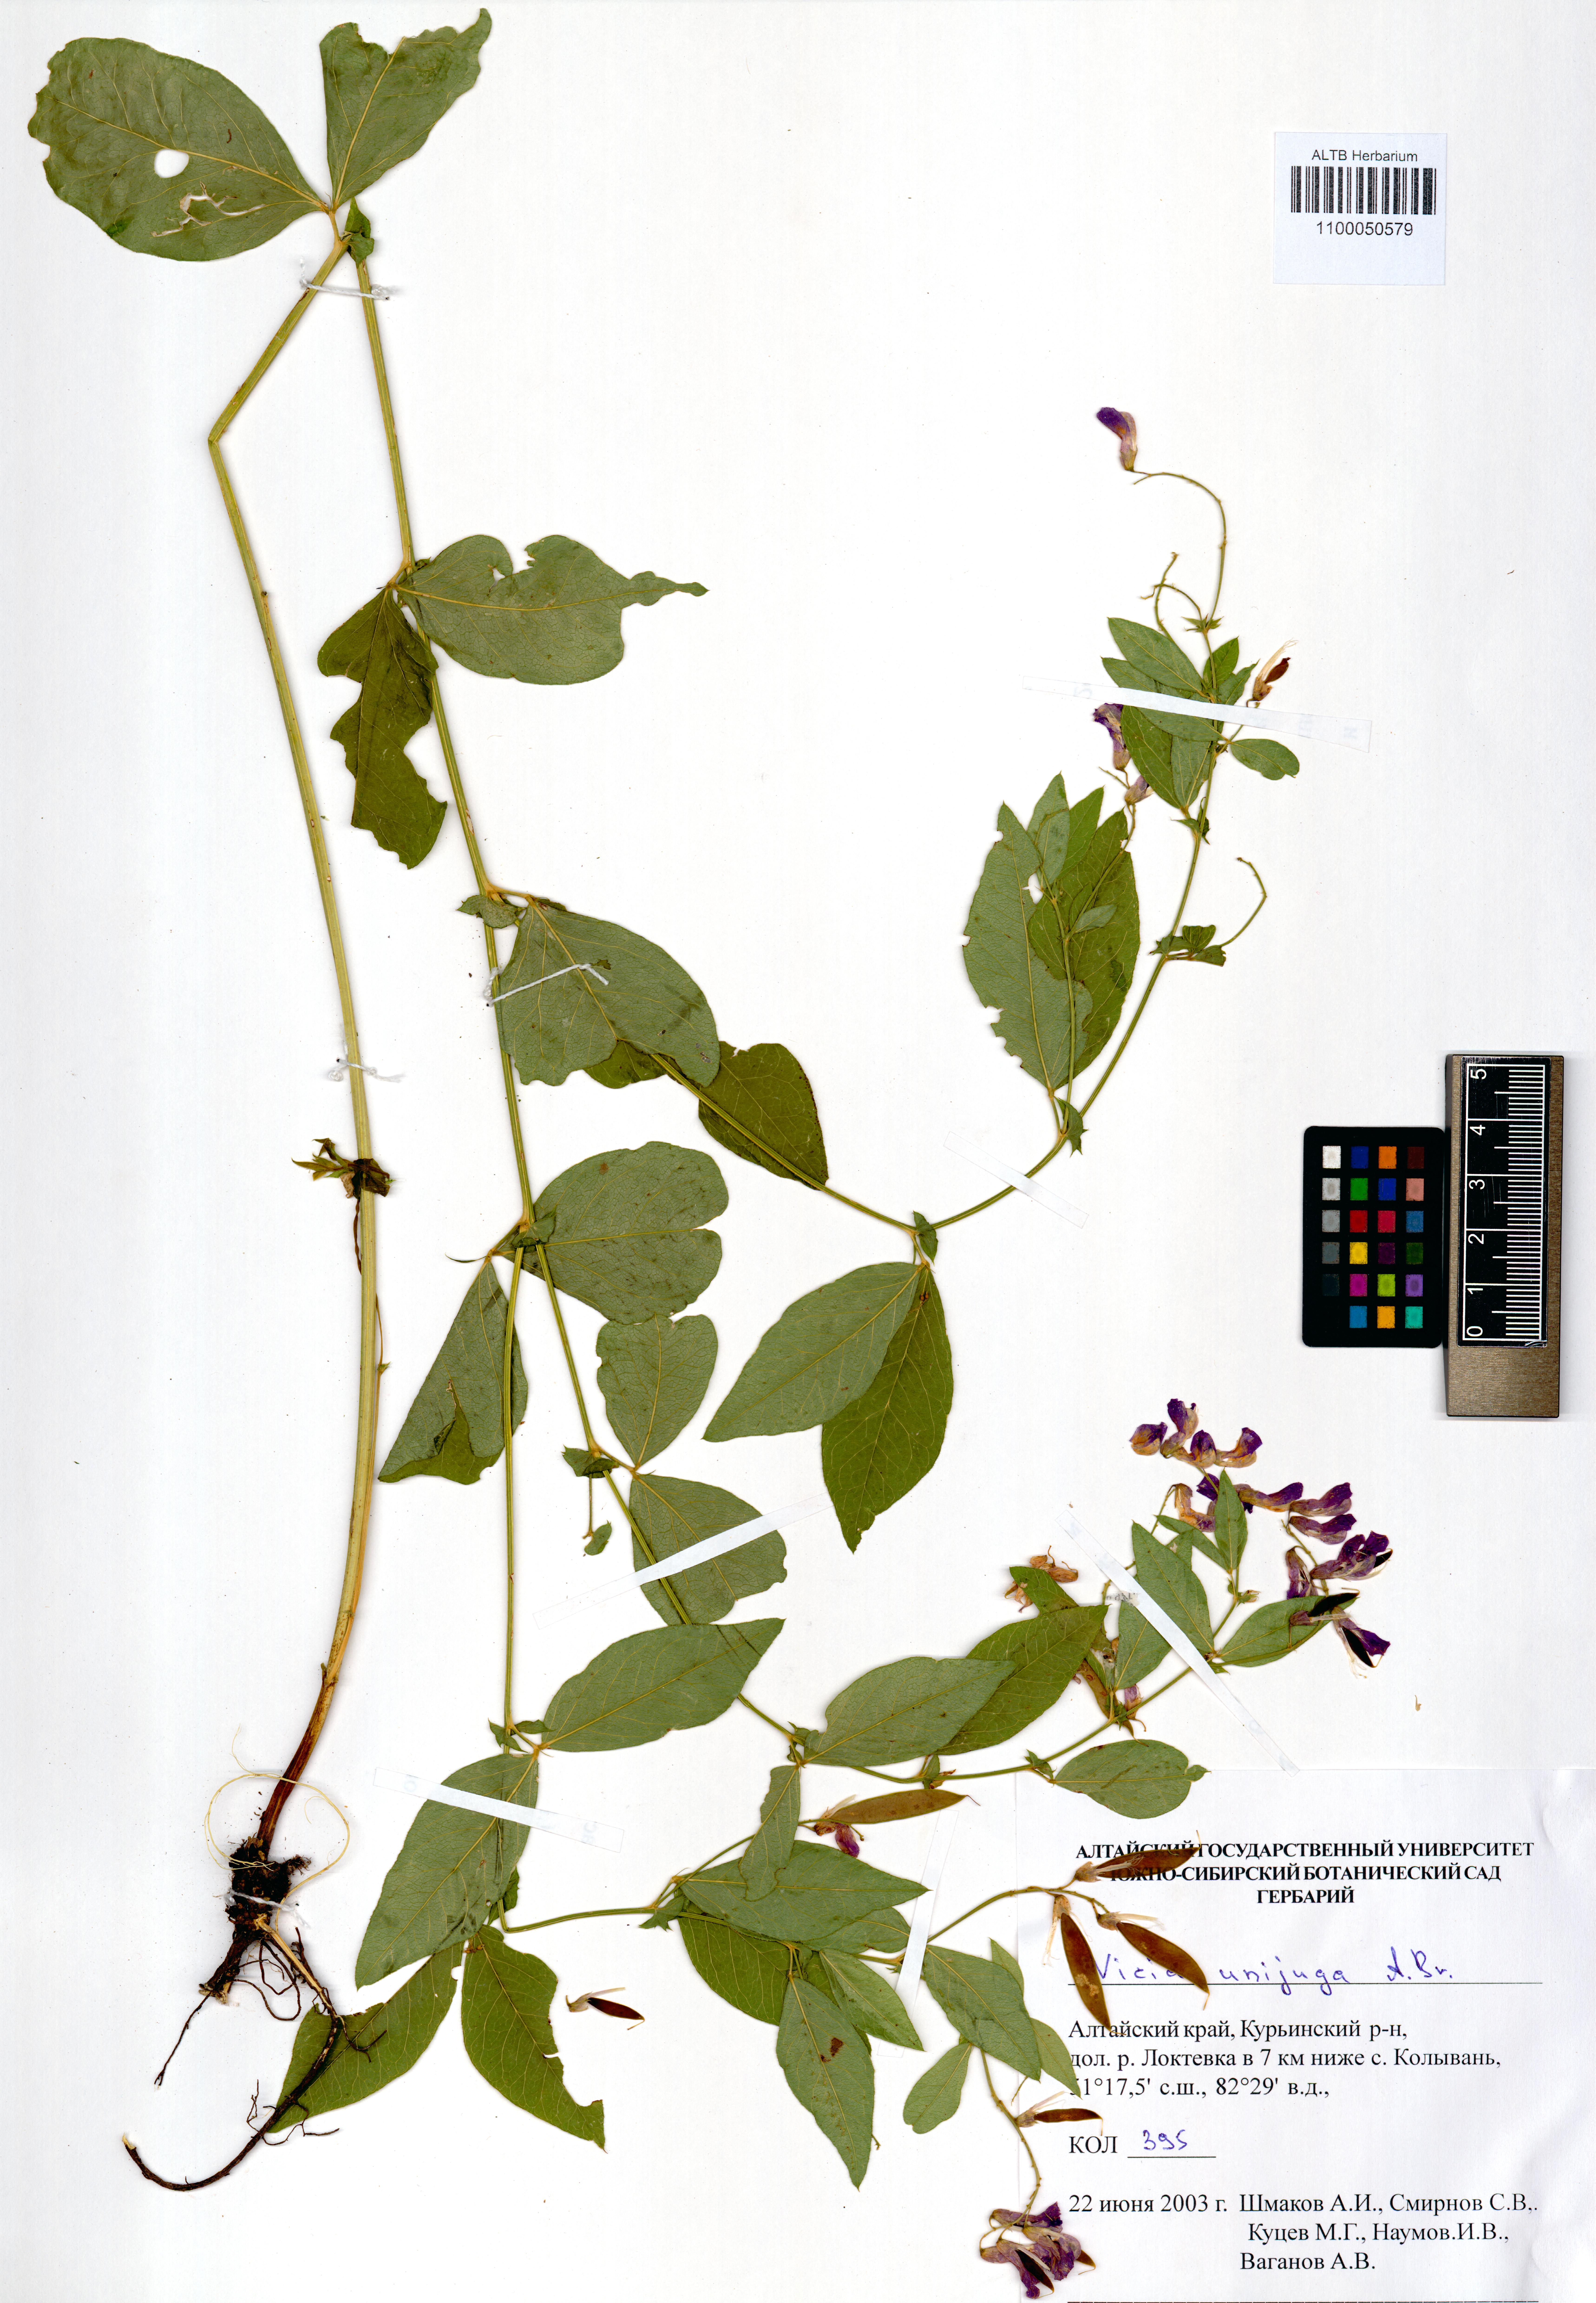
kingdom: Plantae
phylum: Tracheophyta
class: Magnoliopsida
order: Fabales
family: Fabaceae
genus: Vicia
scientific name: Vicia unijuga
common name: Two-leaf vetch
